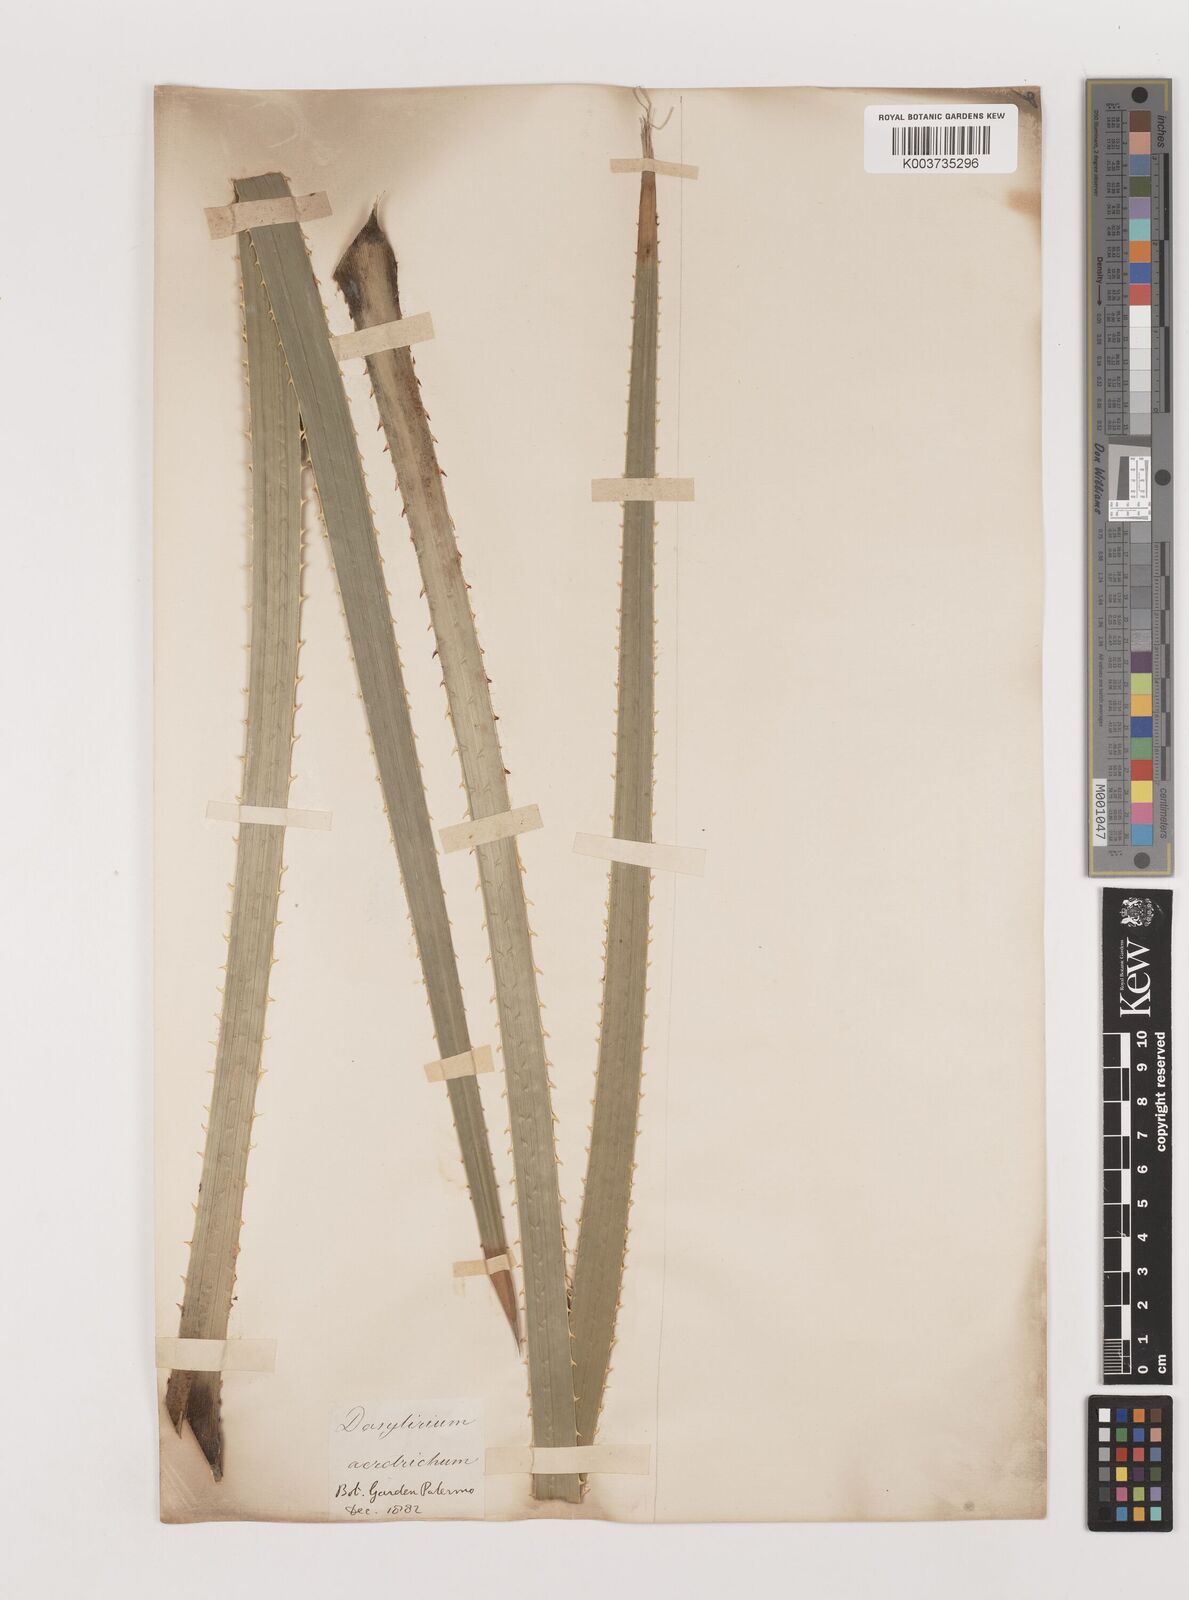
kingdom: Plantae
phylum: Tracheophyta
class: Liliopsida
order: Asparagales
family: Asparagaceae
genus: Dasylirion
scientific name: Dasylirion
